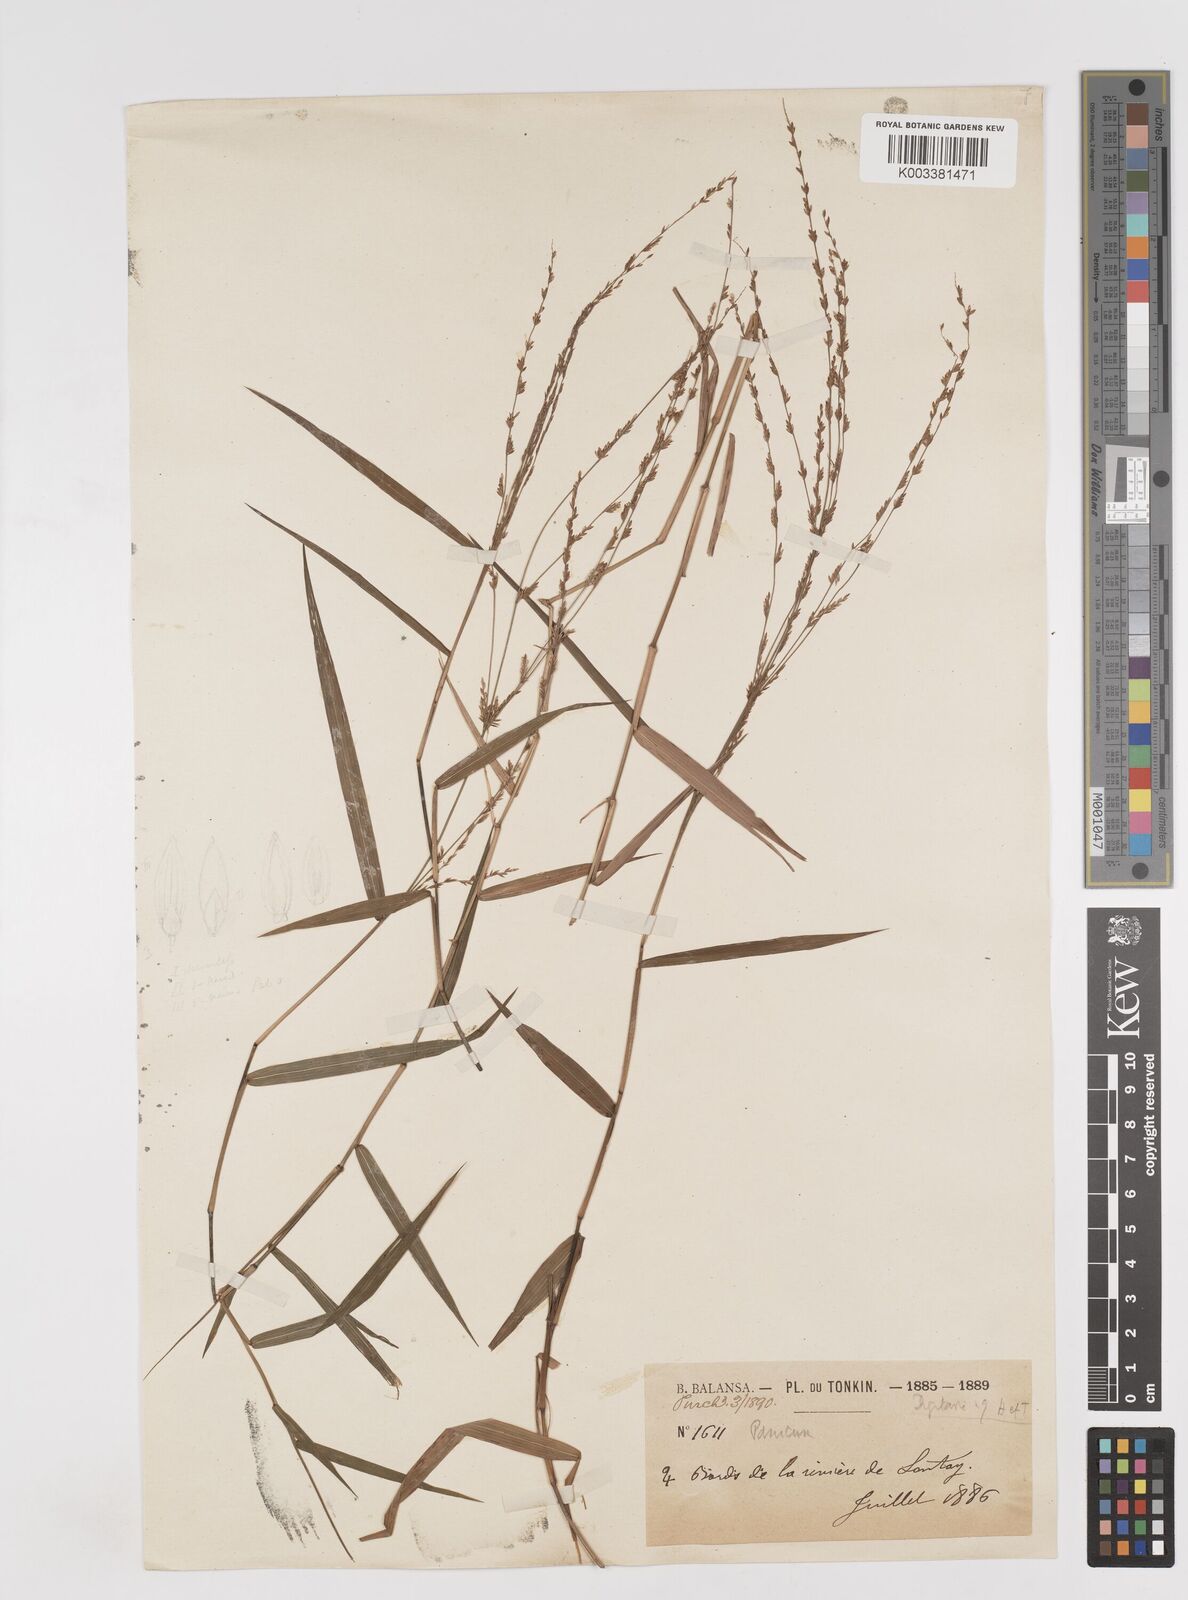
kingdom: Plantae
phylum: Tracheophyta
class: Liliopsida
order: Poales
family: Poaceae
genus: Ottochloa
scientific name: Ottochloa nodosa
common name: Slender-panic grass
